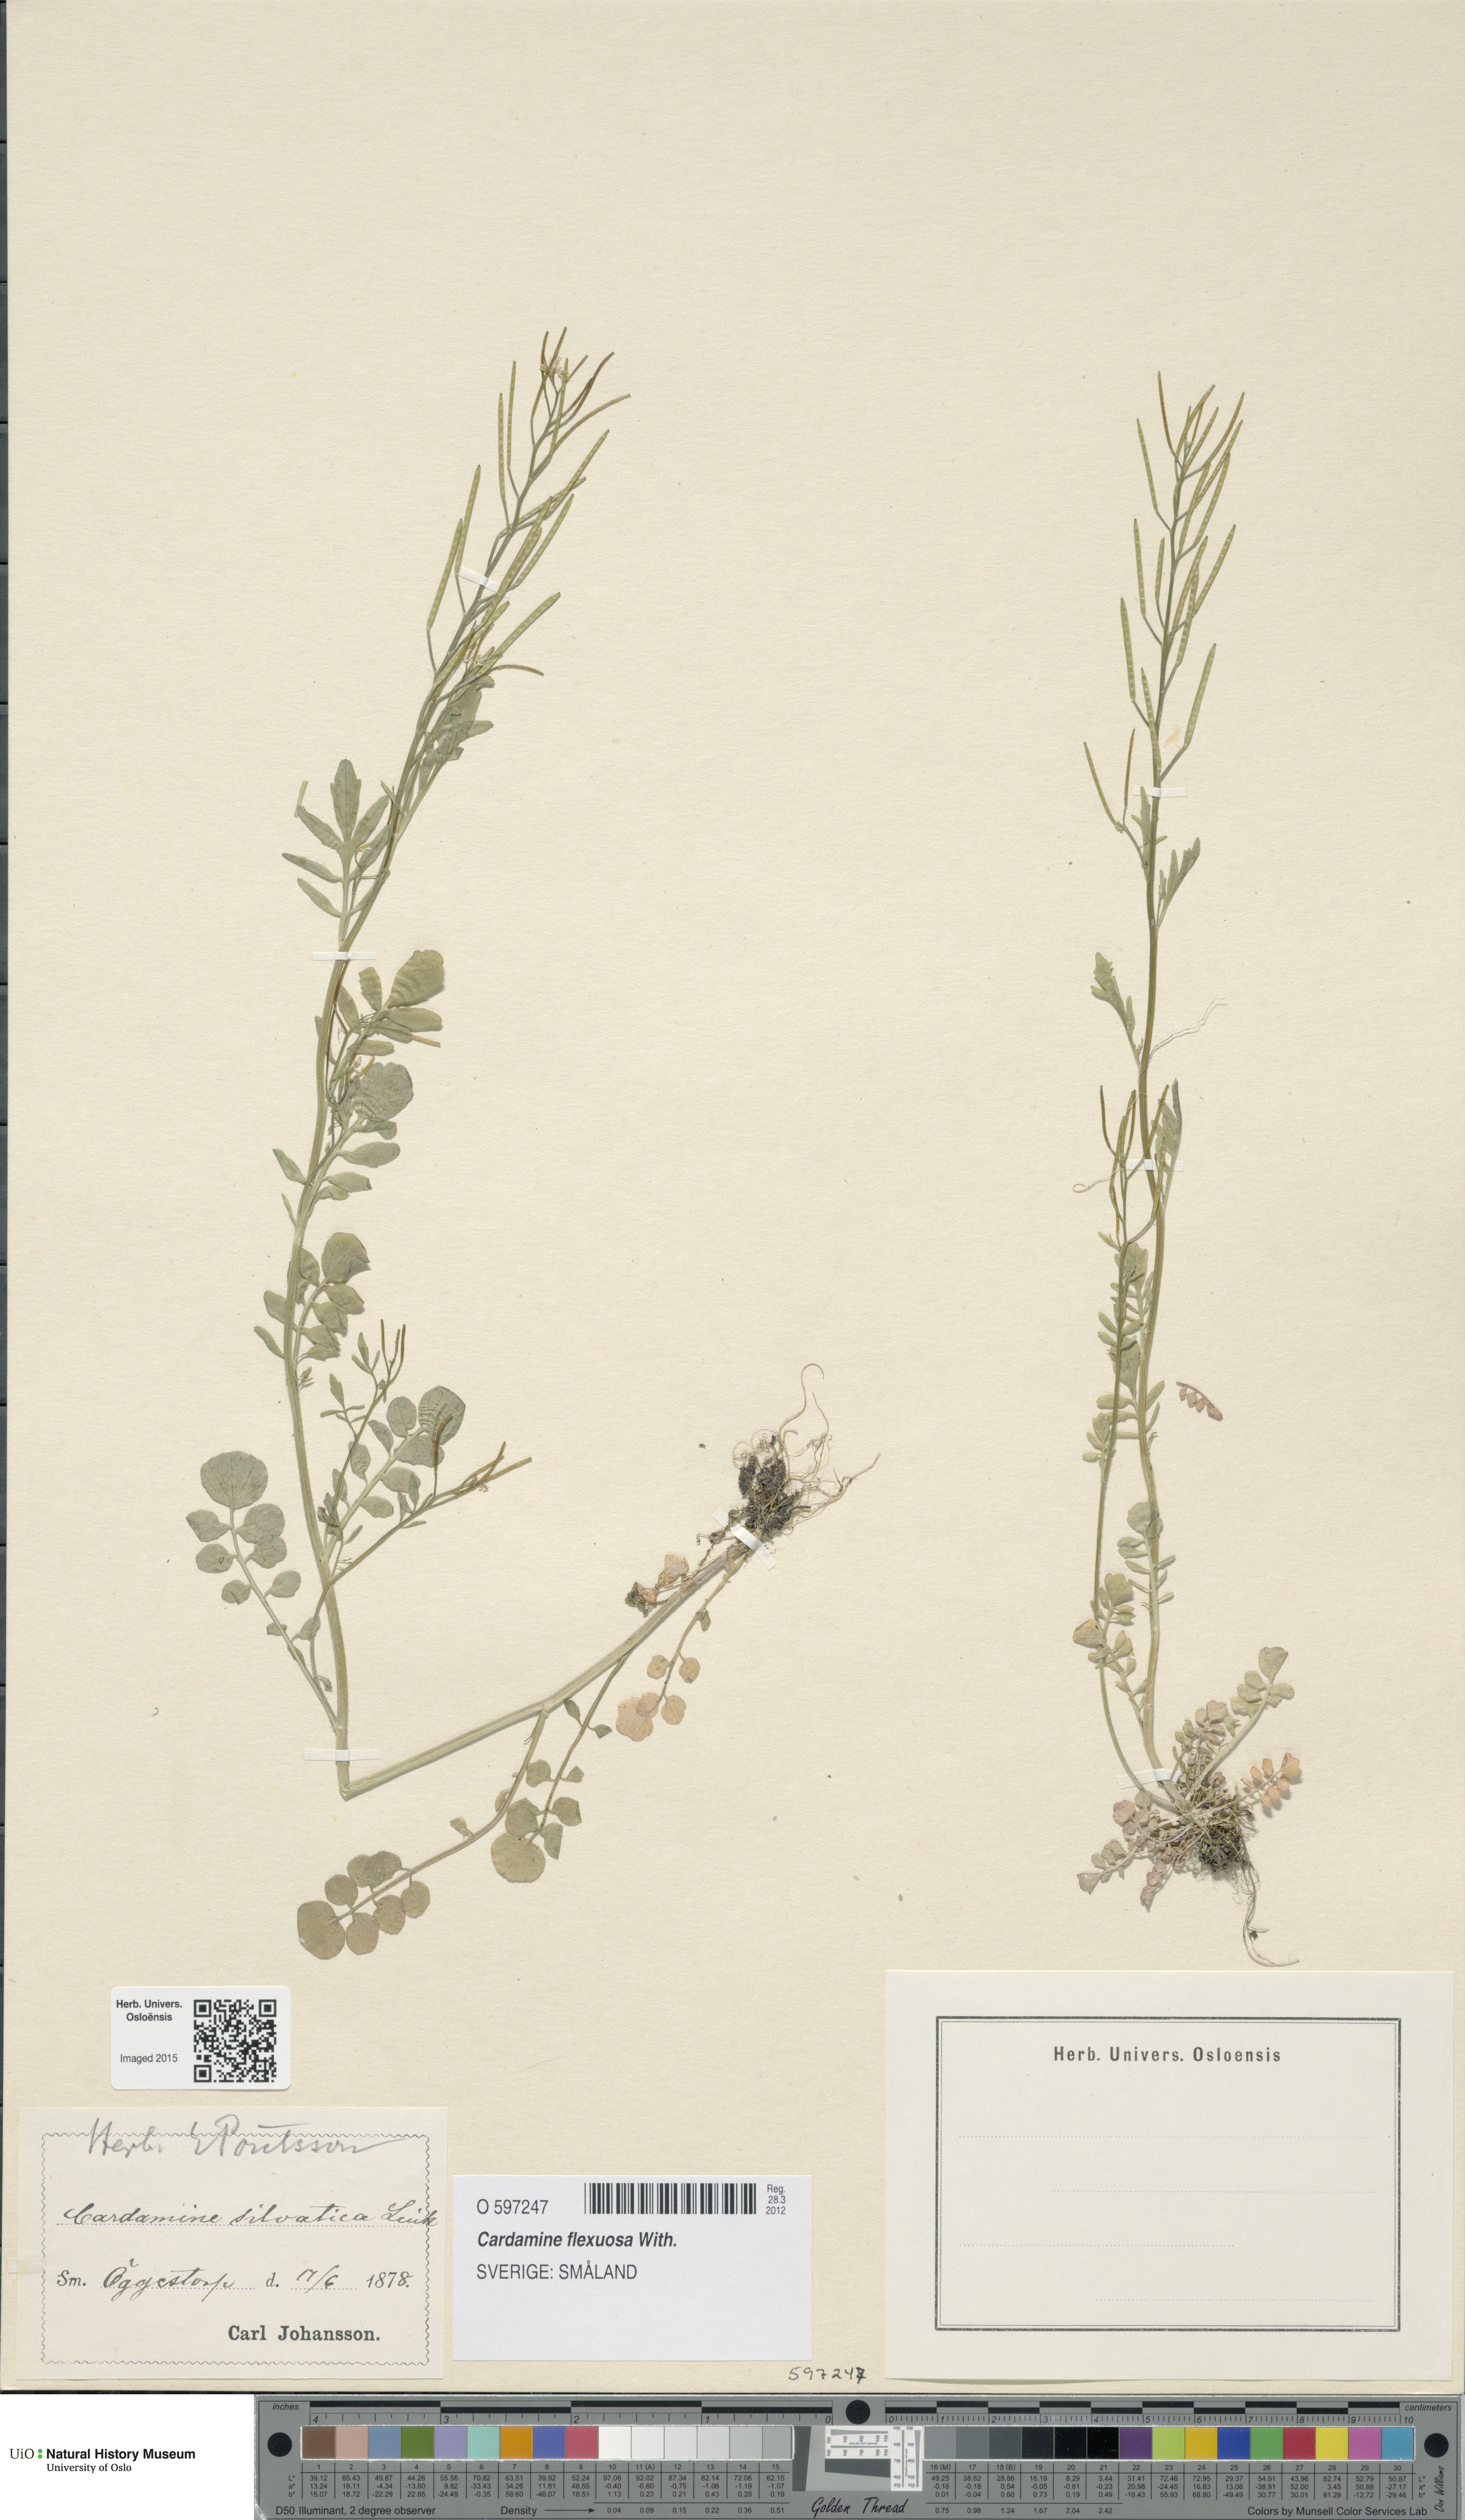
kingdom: Plantae
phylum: Tracheophyta
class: Magnoliopsida
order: Brassicales
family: Brassicaceae
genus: Cardamine
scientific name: Cardamine flexuosa
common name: Woodland bittercress
